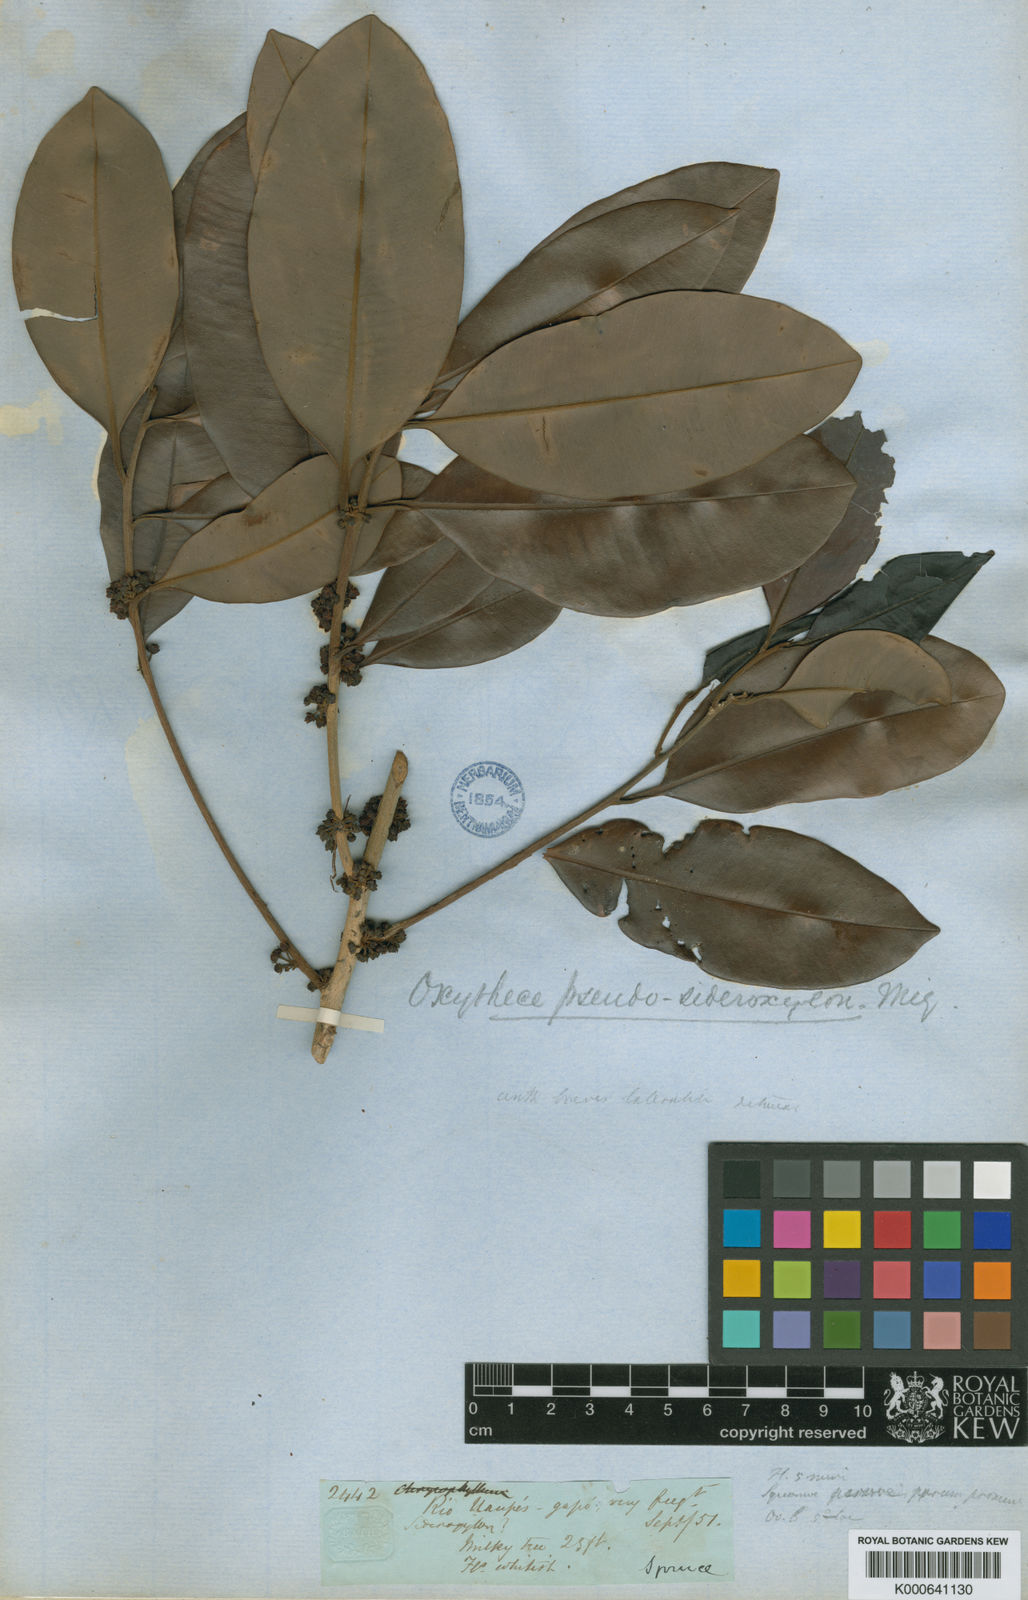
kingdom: Plantae
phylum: Tracheophyta
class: Magnoliopsida
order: Ericales
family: Sapotaceae
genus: Pouteria
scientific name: Pouteria elegans
